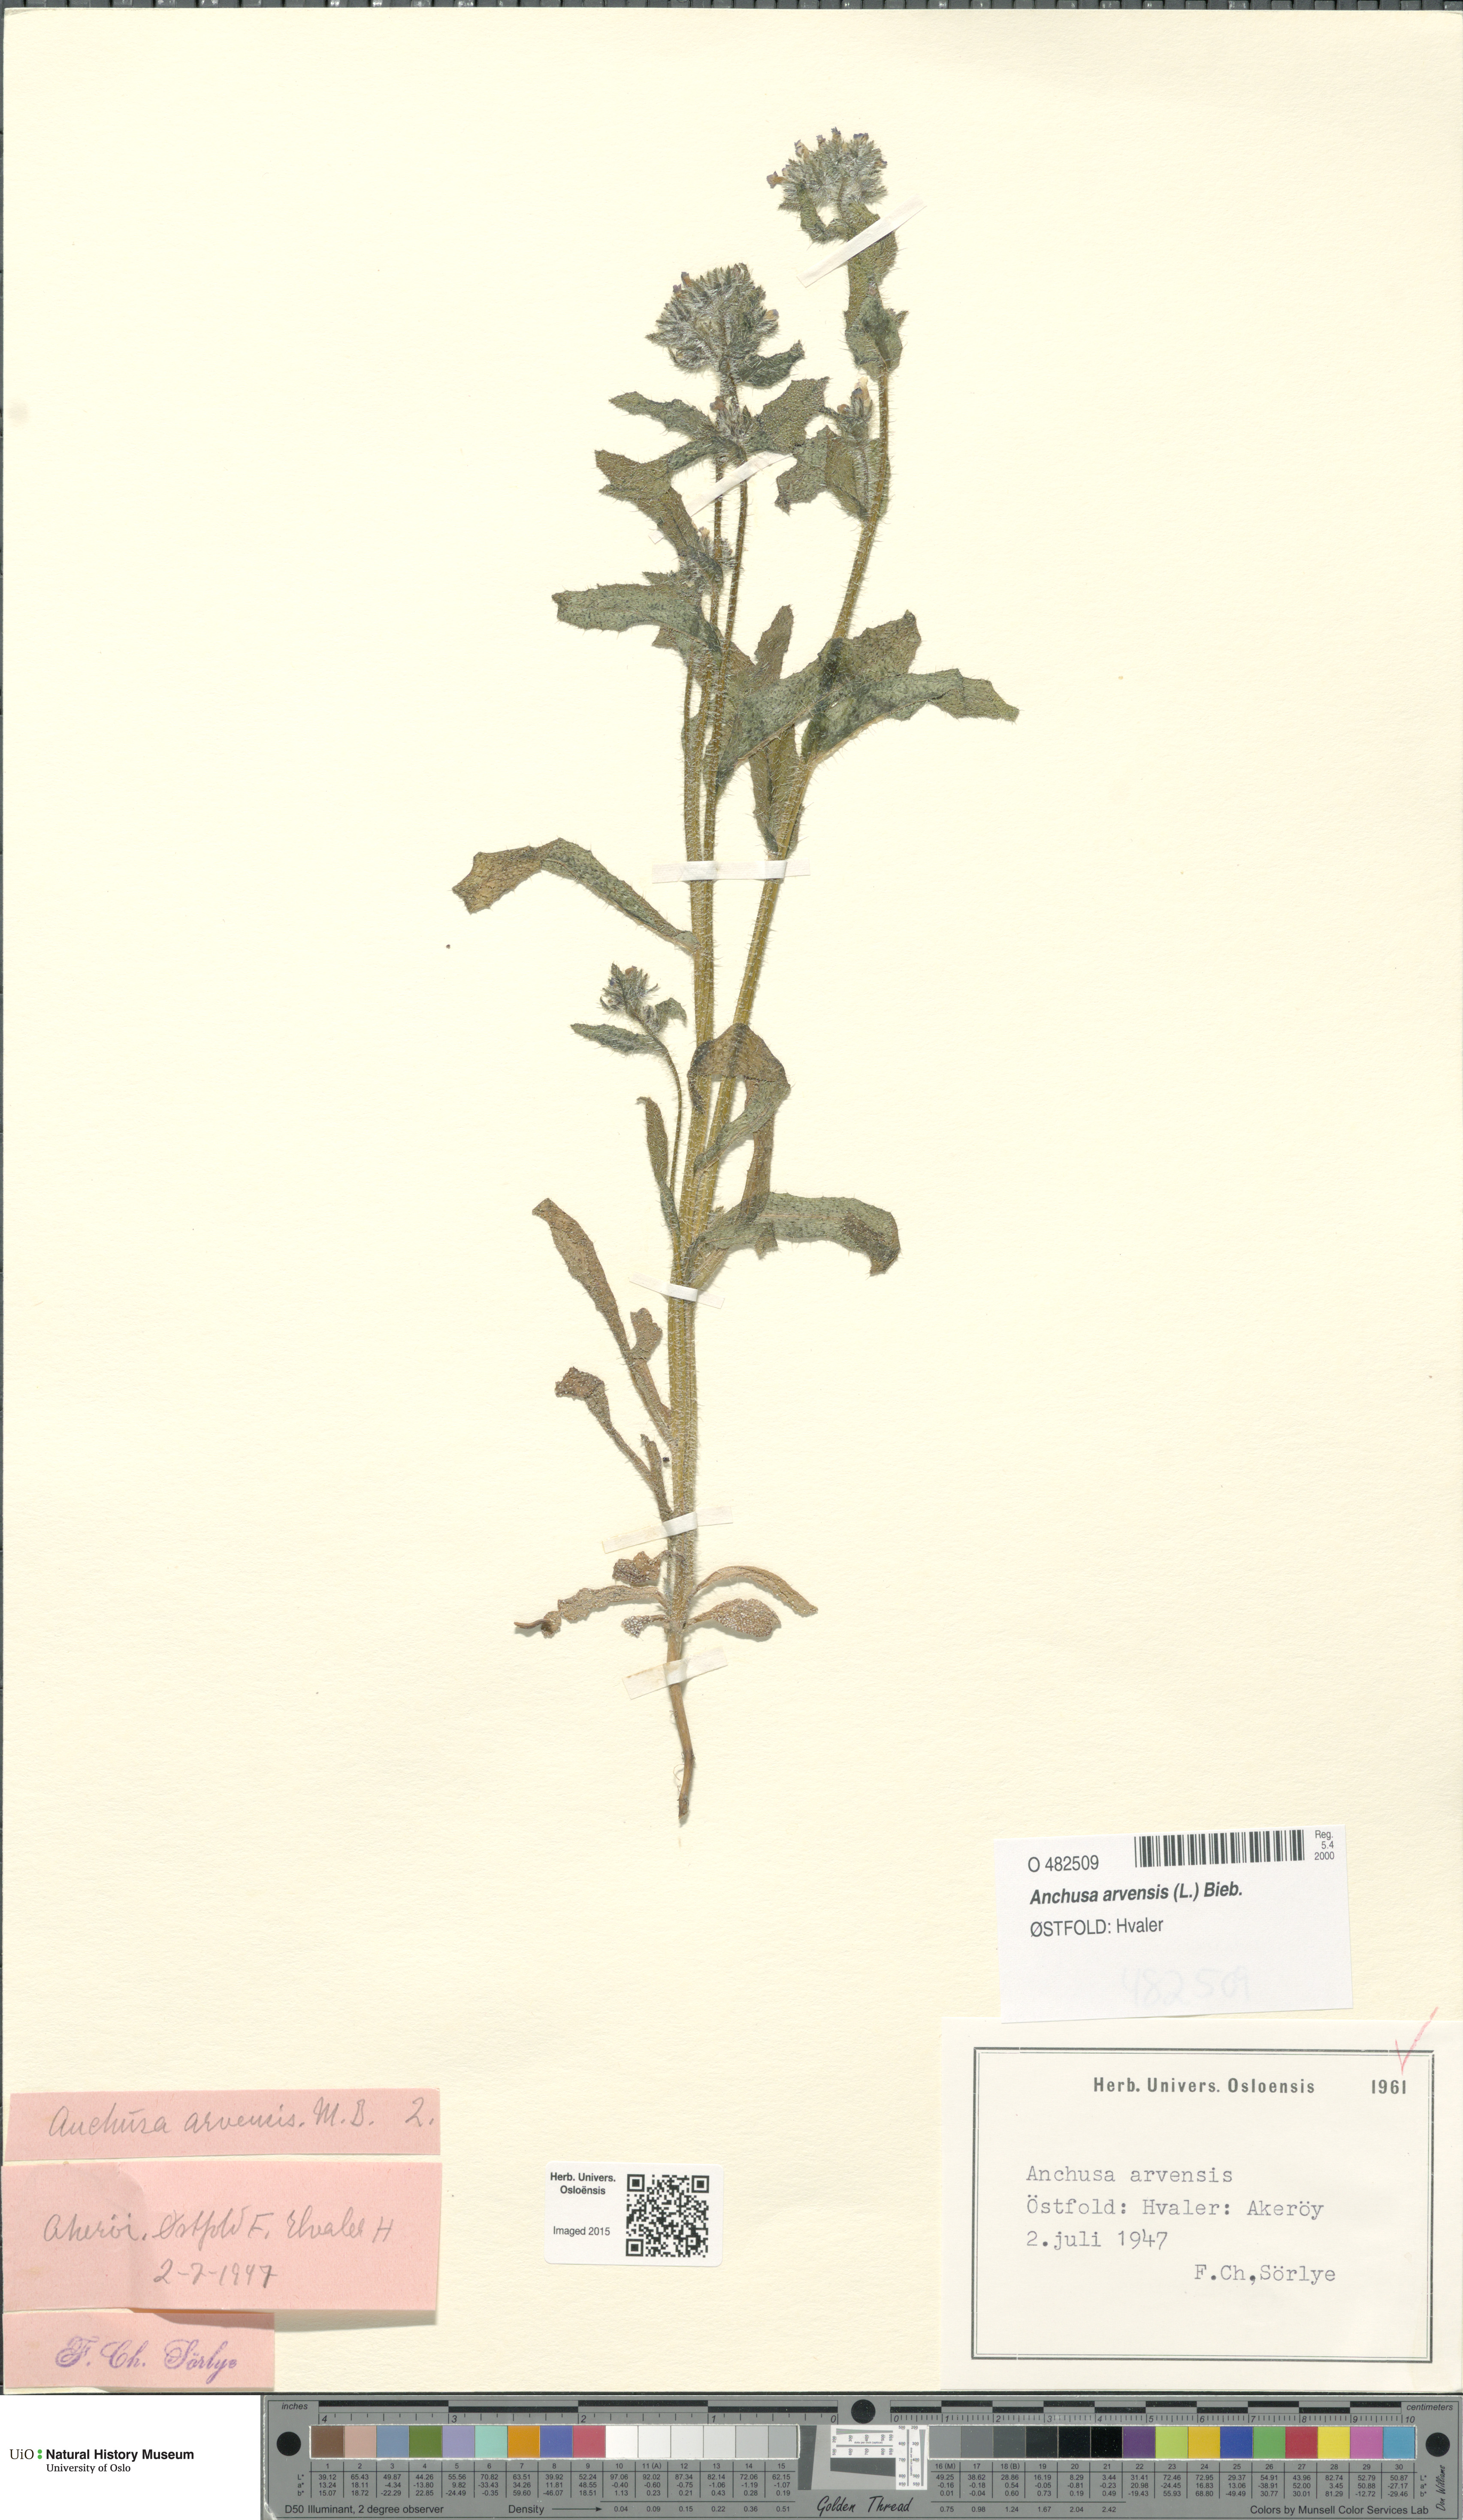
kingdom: Plantae
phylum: Tracheophyta
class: Magnoliopsida
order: Boraginales
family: Boraginaceae
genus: Lycopsis
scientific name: Lycopsis arvensis
